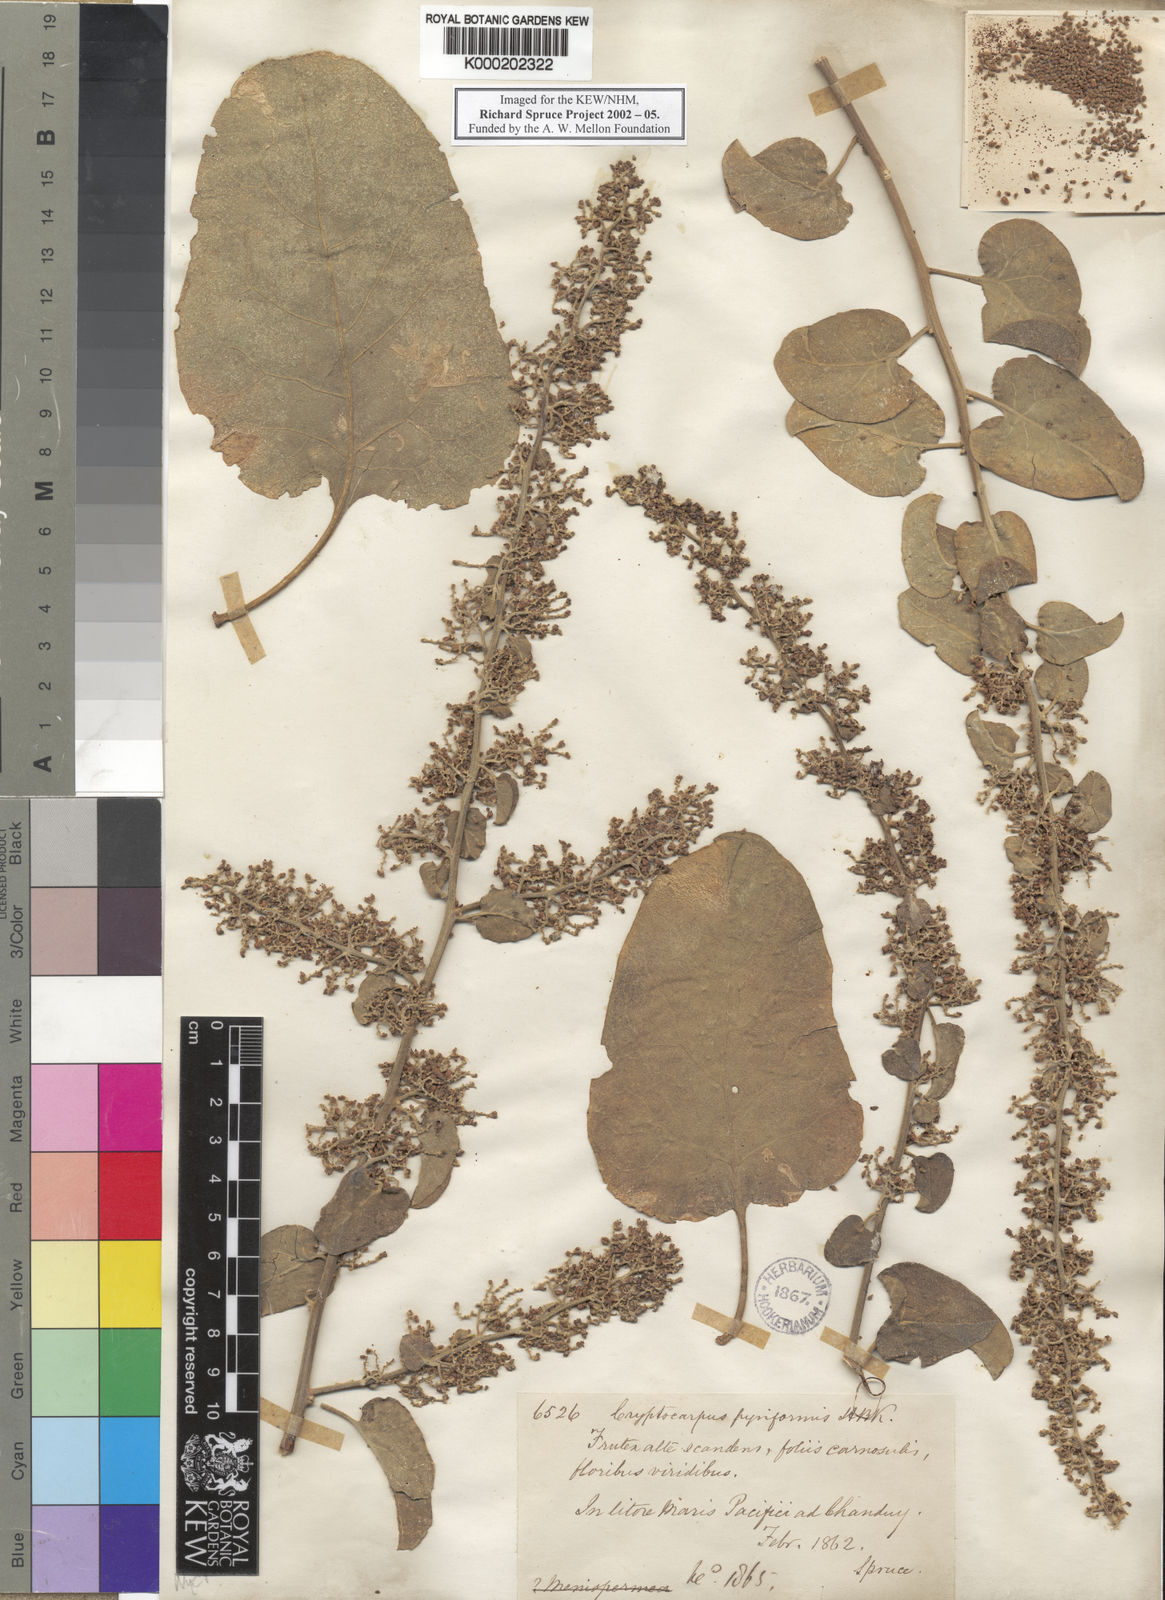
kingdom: Plantae
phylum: Tracheophyta
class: Magnoliopsida
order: Caryophyllales
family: Nyctaginaceae
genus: Cryptocarpus
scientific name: Cryptocarpus pyriformis
